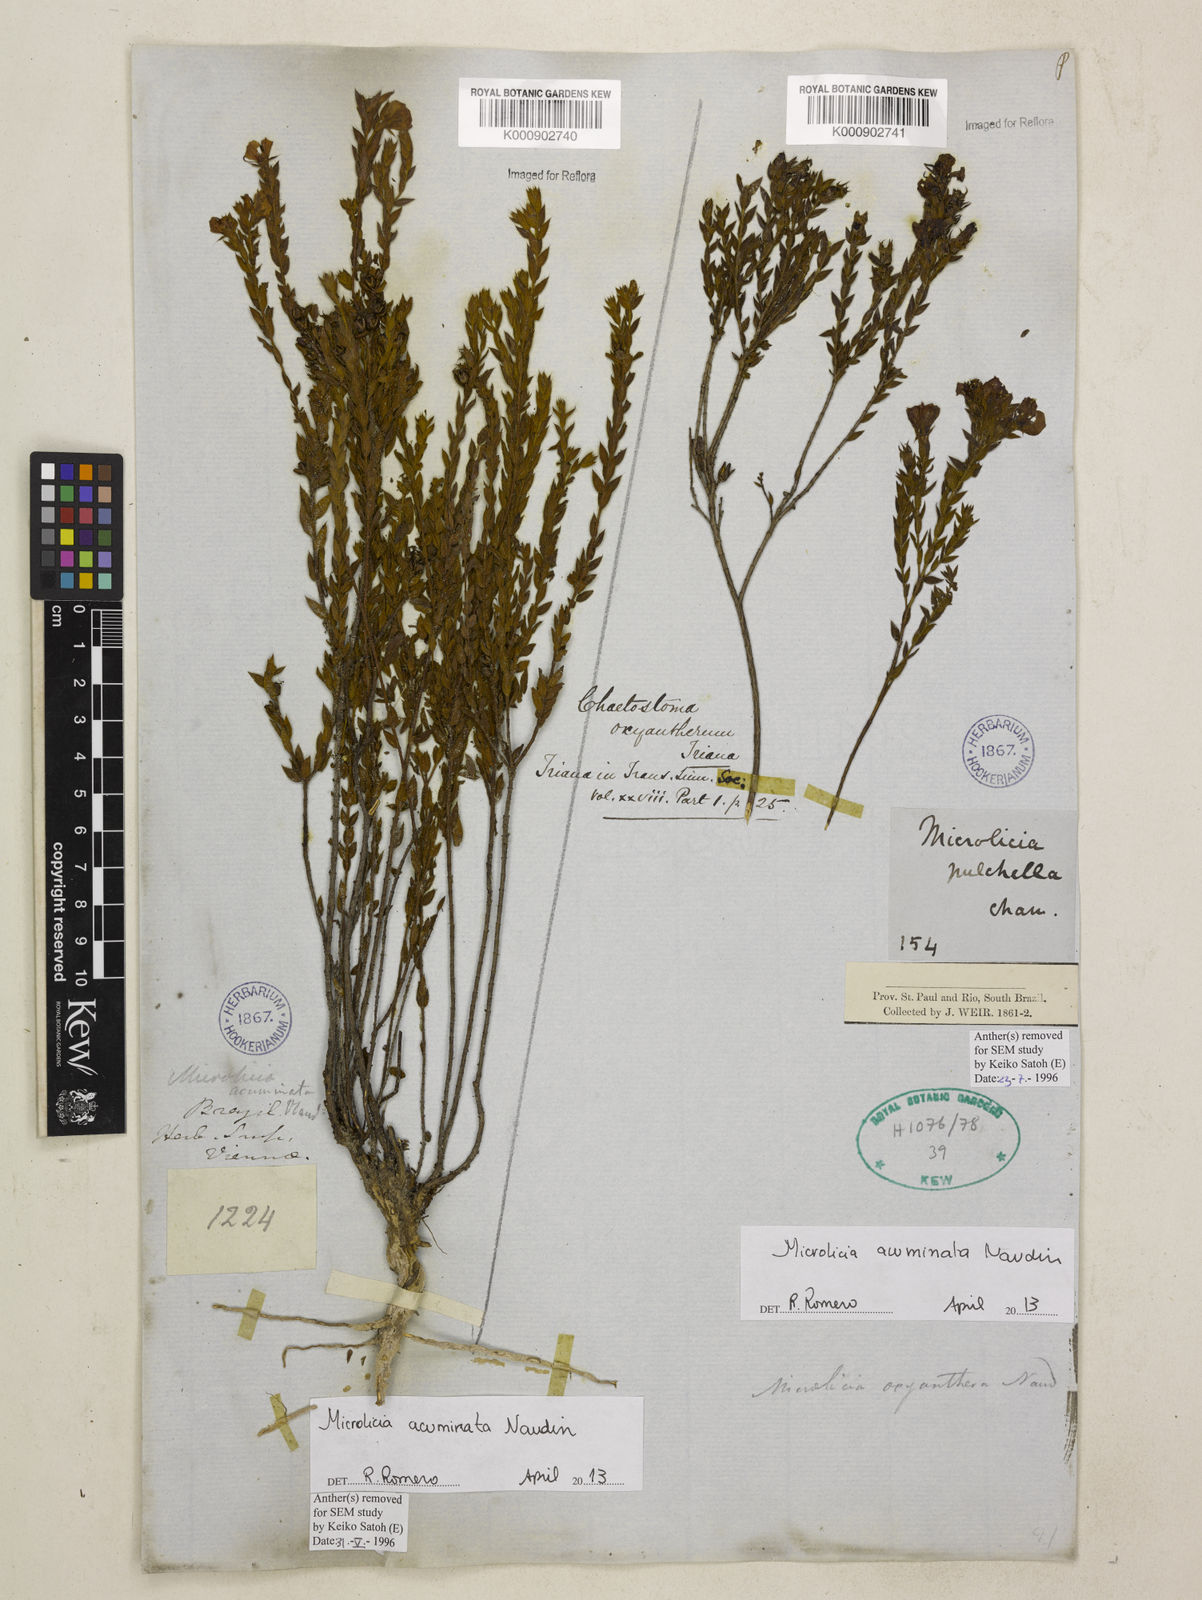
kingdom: Plantae
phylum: Tracheophyta
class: Magnoliopsida
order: Myrtales
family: Melastomataceae
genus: Microlicia
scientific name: Microlicia
